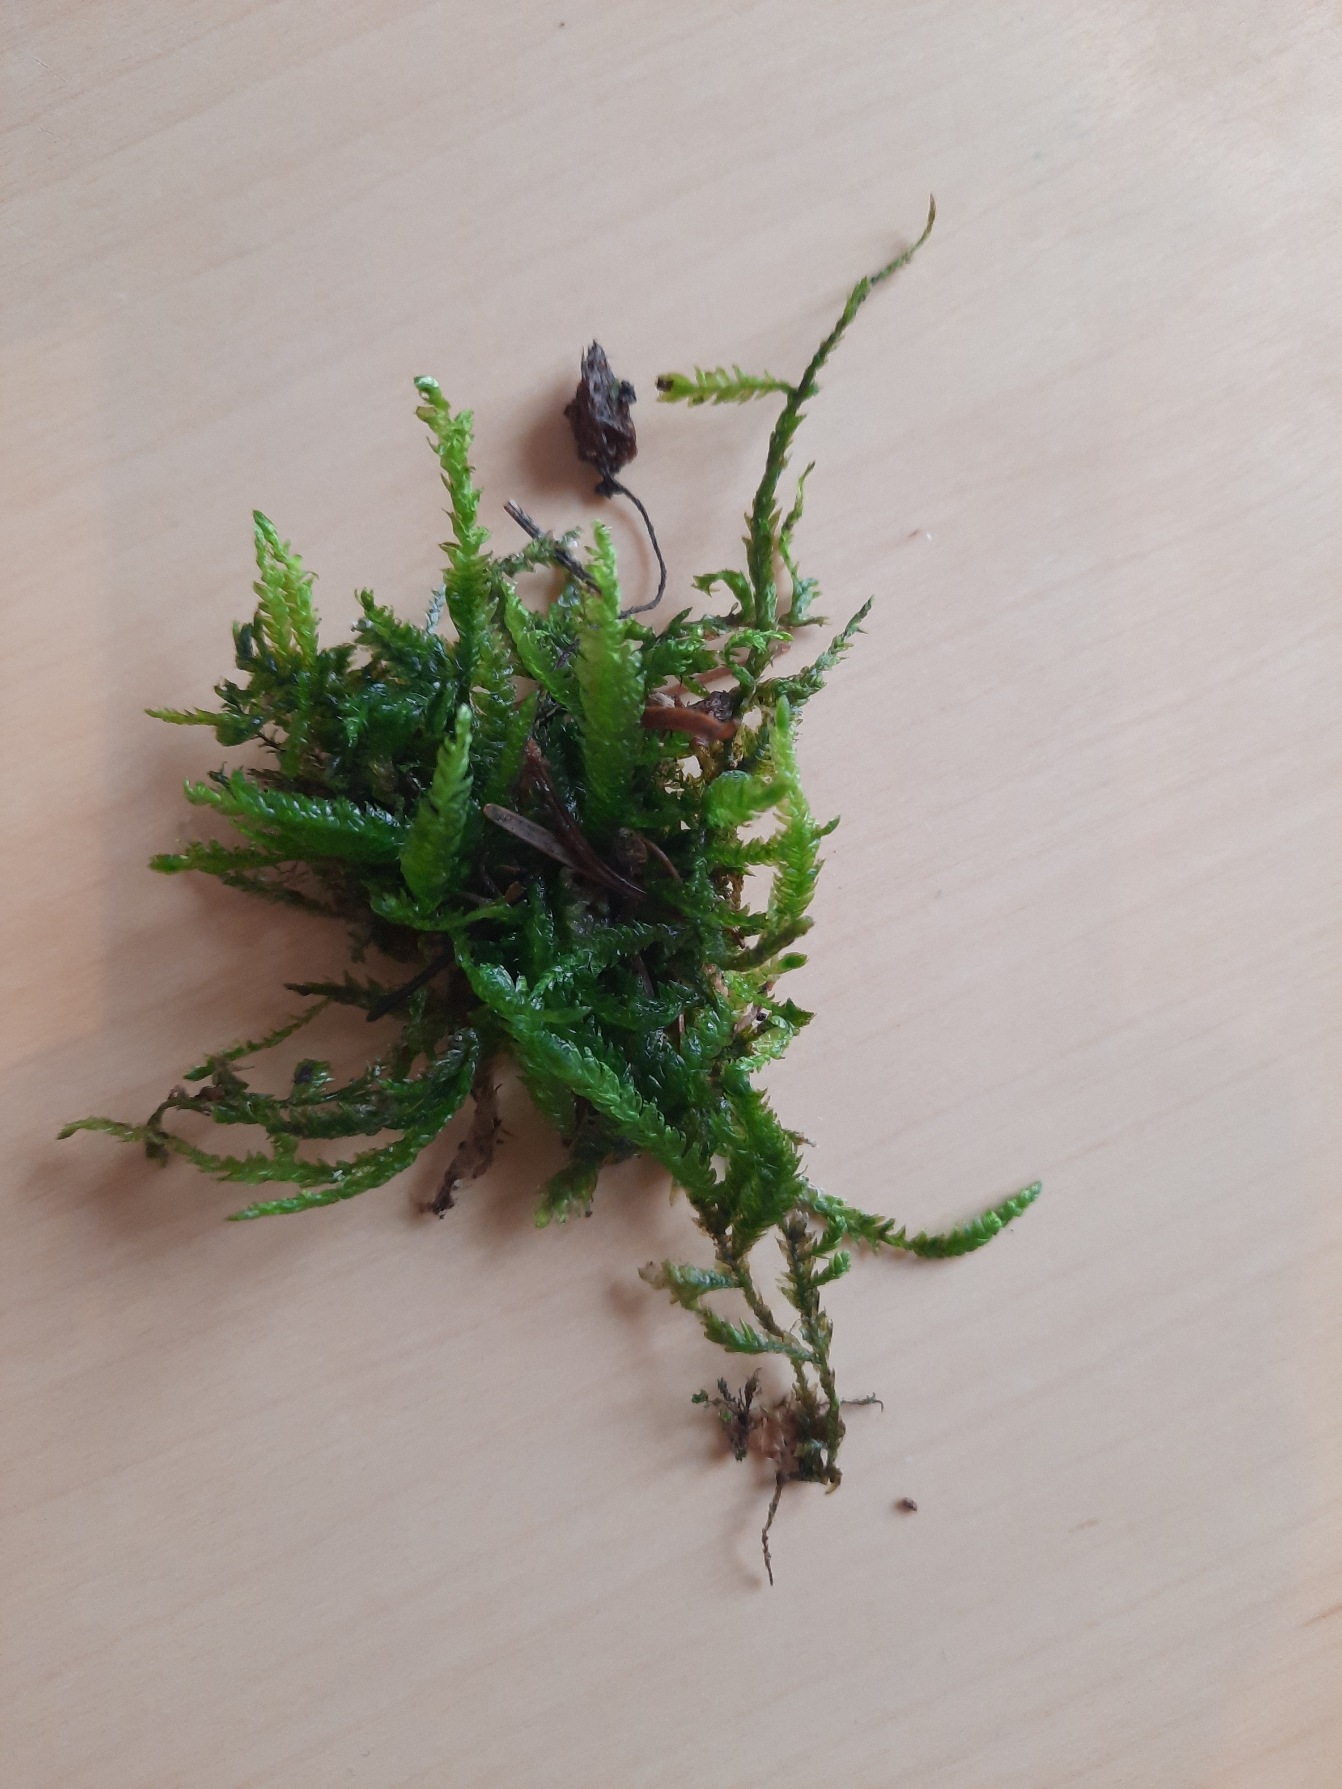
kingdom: Plantae
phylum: Bryophyta
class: Bryopsida
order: Hypnales
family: Plagiotheciaceae
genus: Plagiothecium
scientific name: Plagiothecium undulatum
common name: Bølget tæppemos
